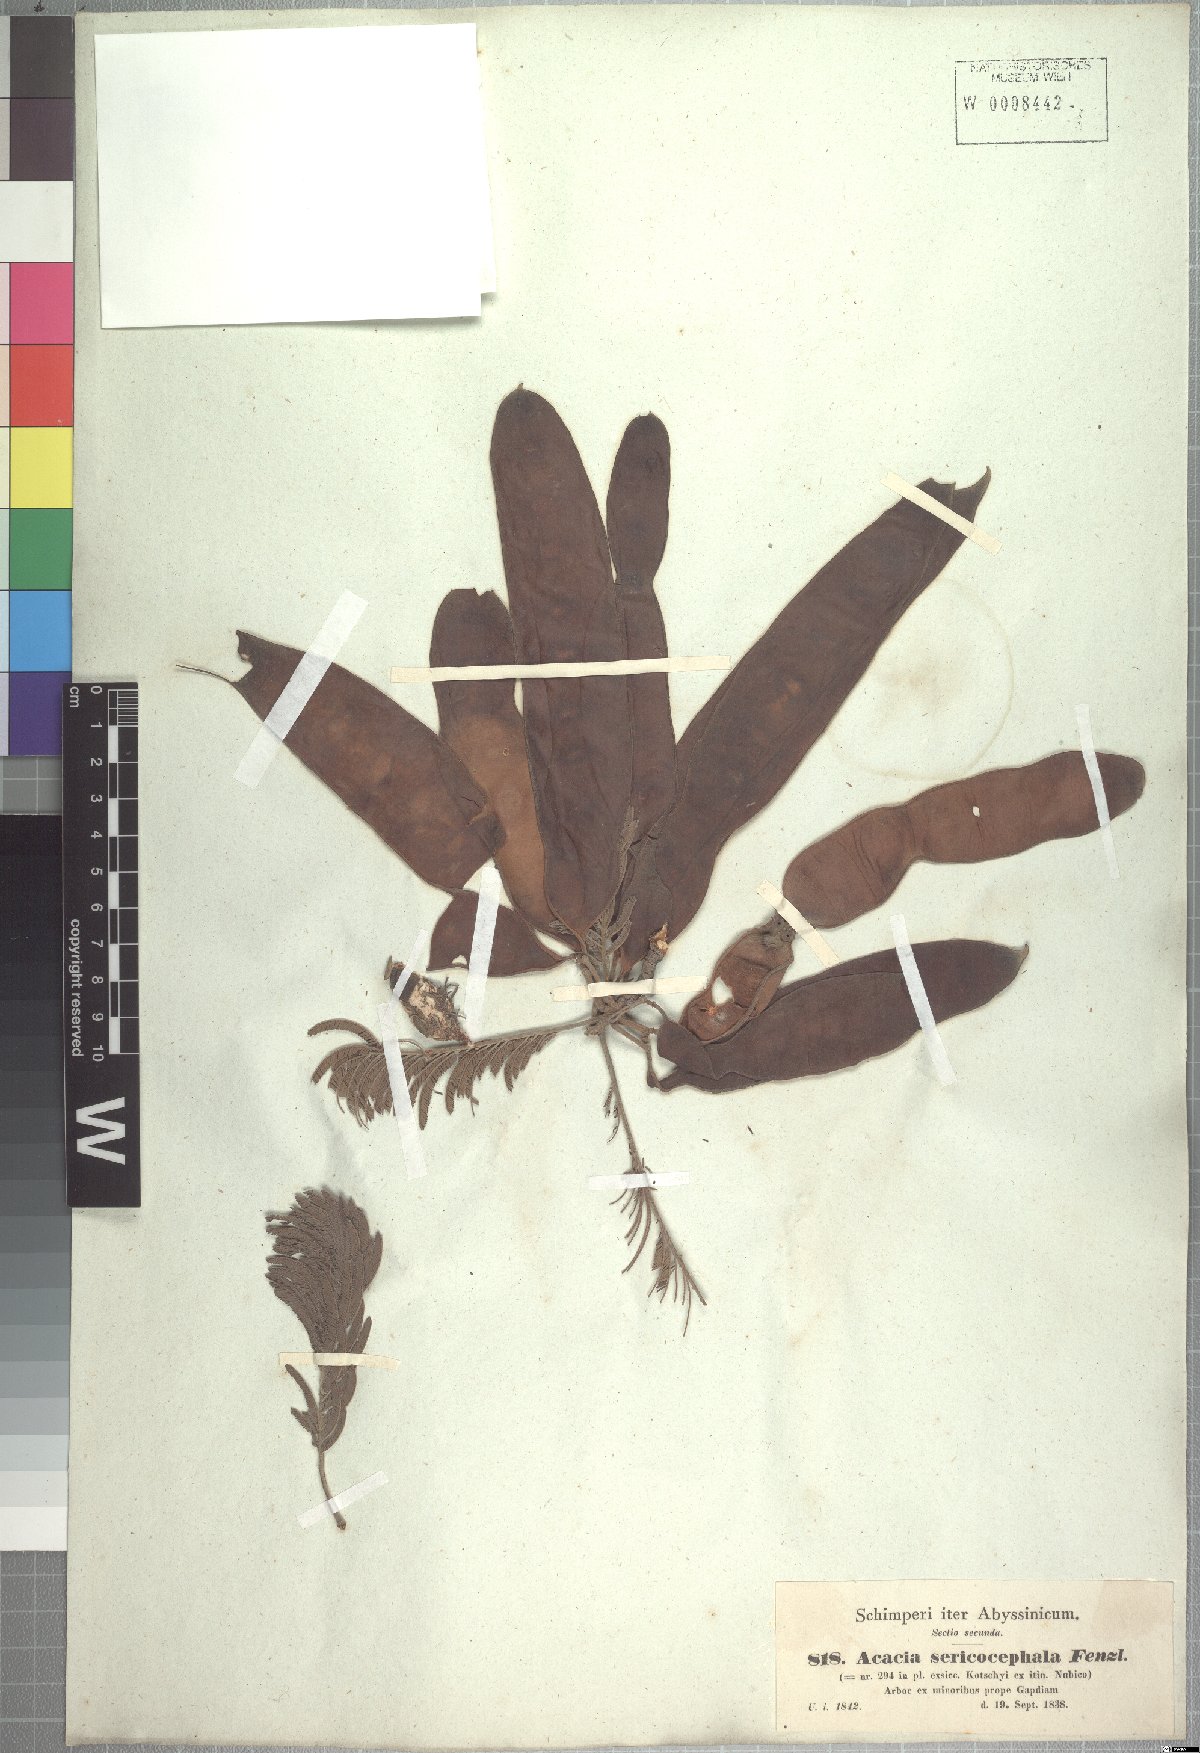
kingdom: Plantae
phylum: Tracheophyta
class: Magnoliopsida
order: Fabales
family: Fabaceae
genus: Albizia
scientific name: Albizia amara
